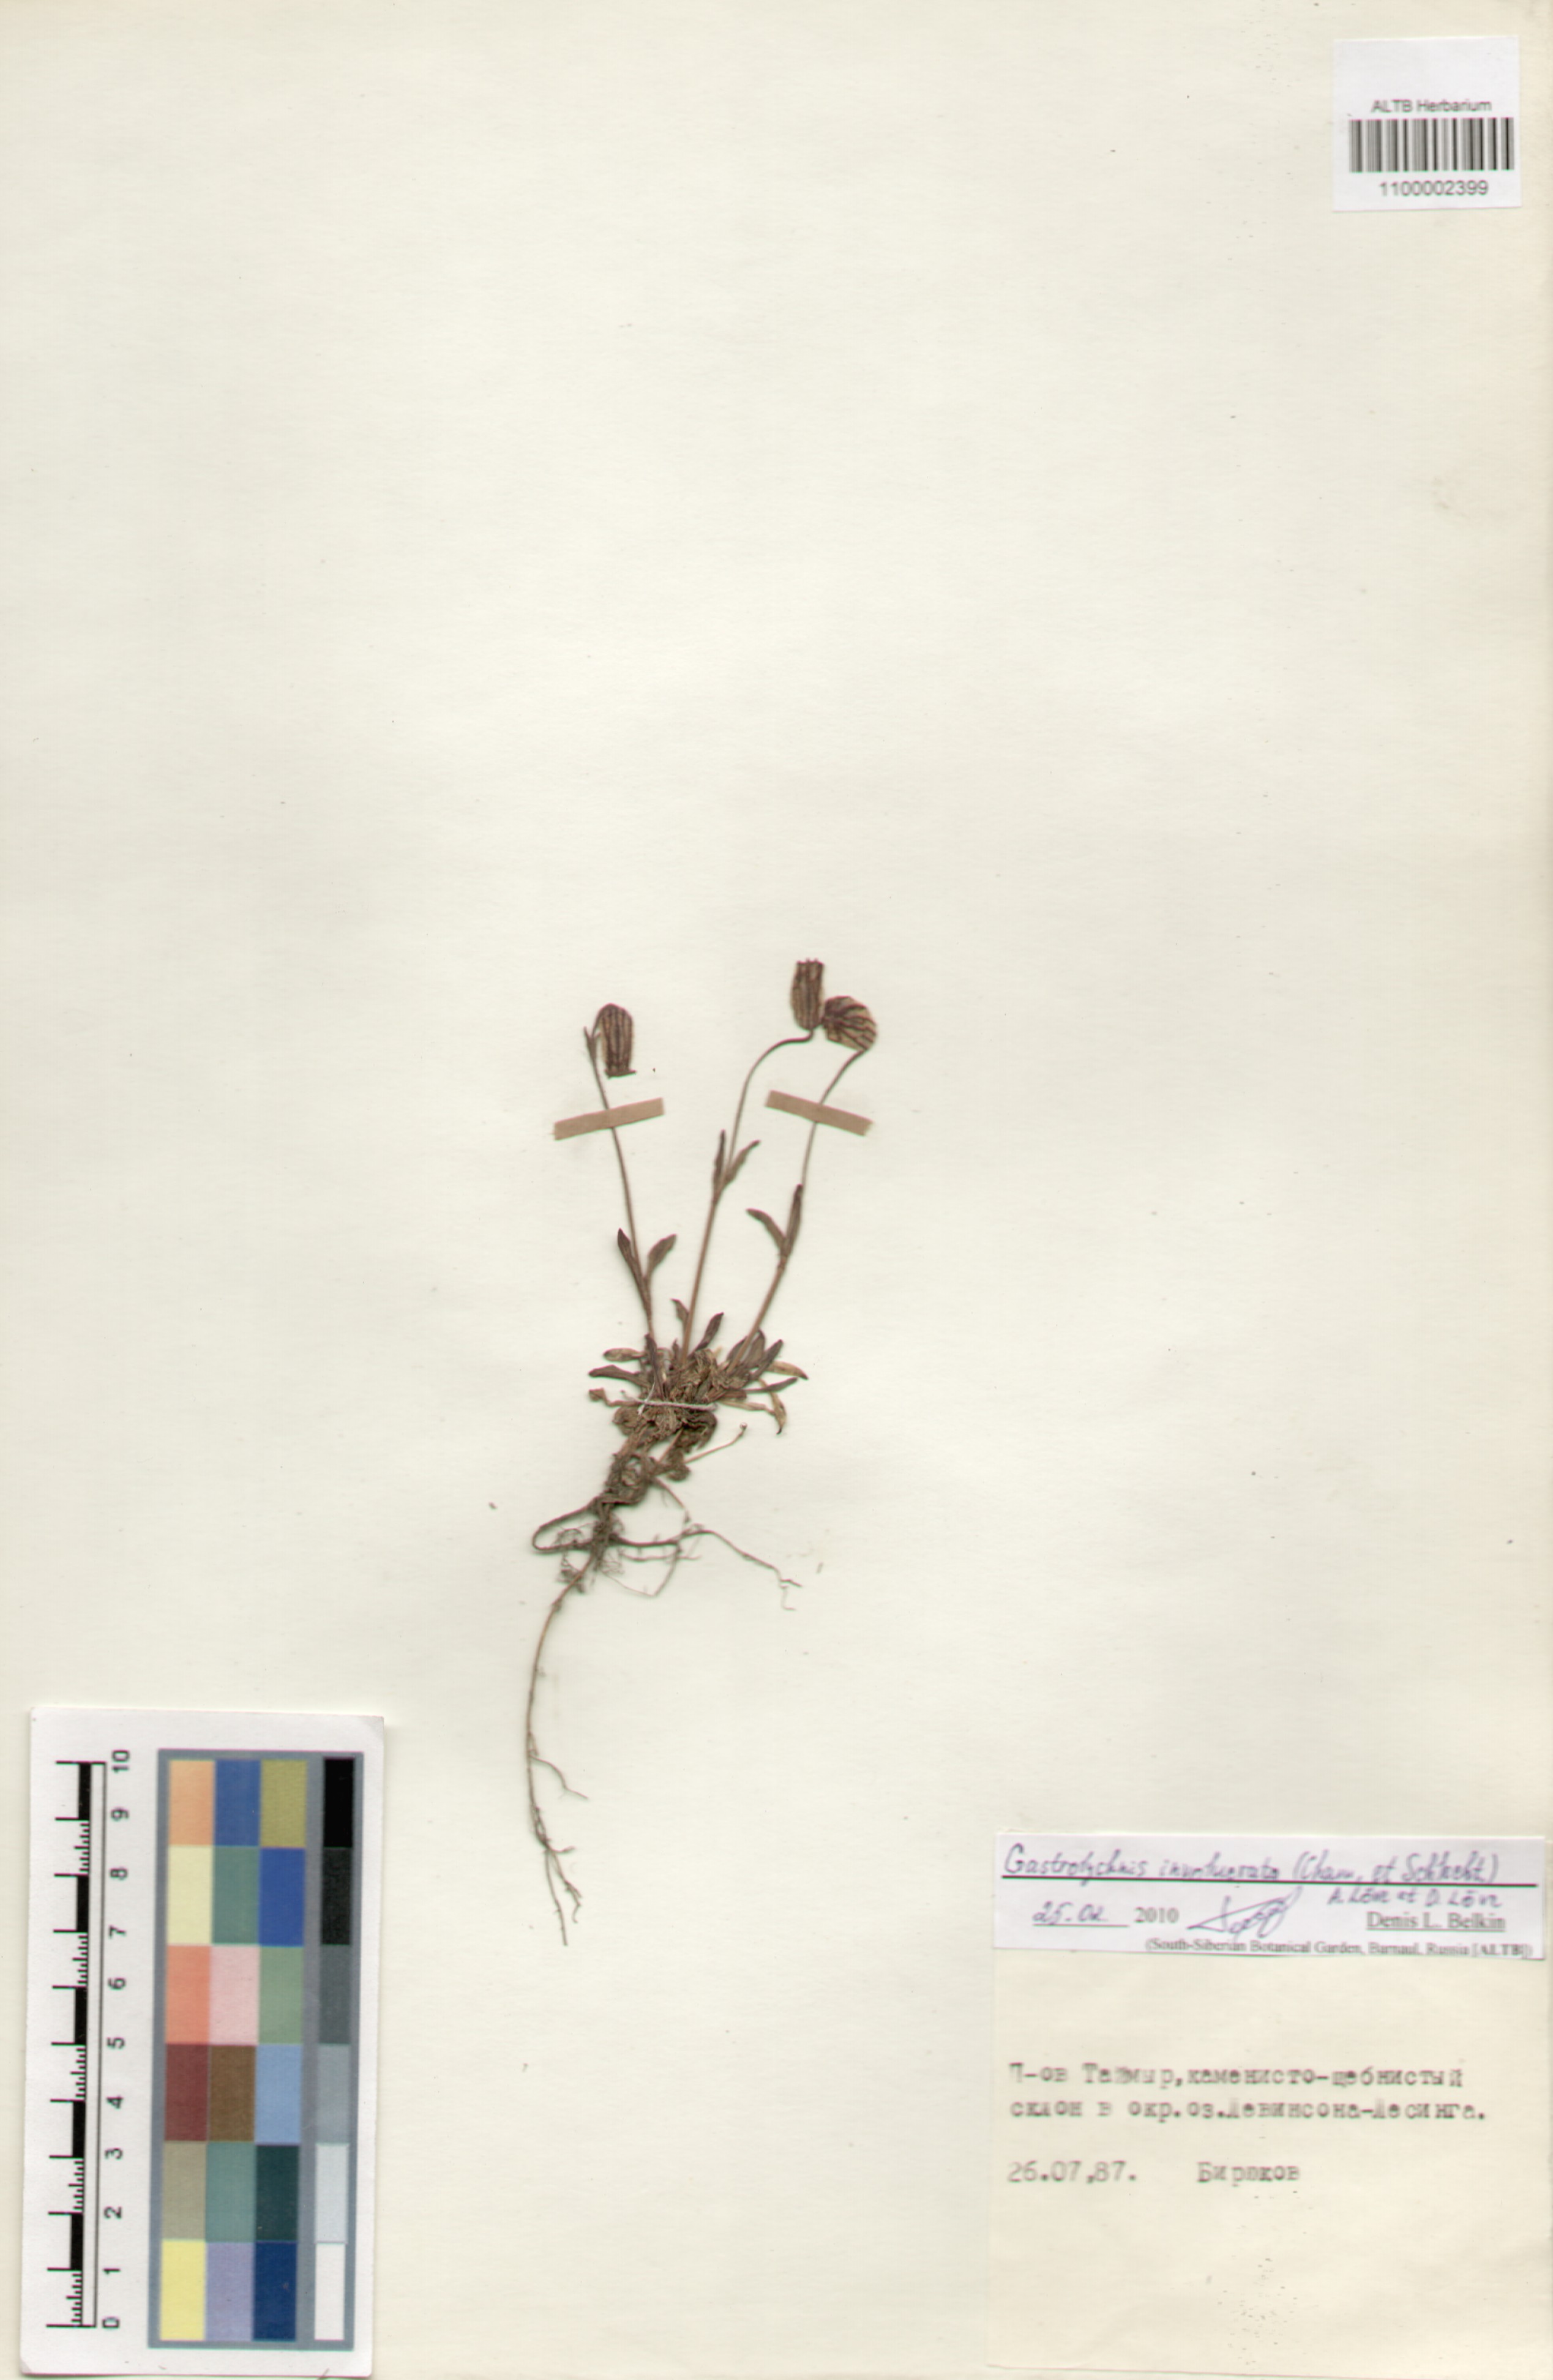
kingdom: Plantae
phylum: Tracheophyta
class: Magnoliopsida
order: Caryophyllales
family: Caryophyllaceae
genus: Silene
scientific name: Silene involucrata
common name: Greater arctic campion
